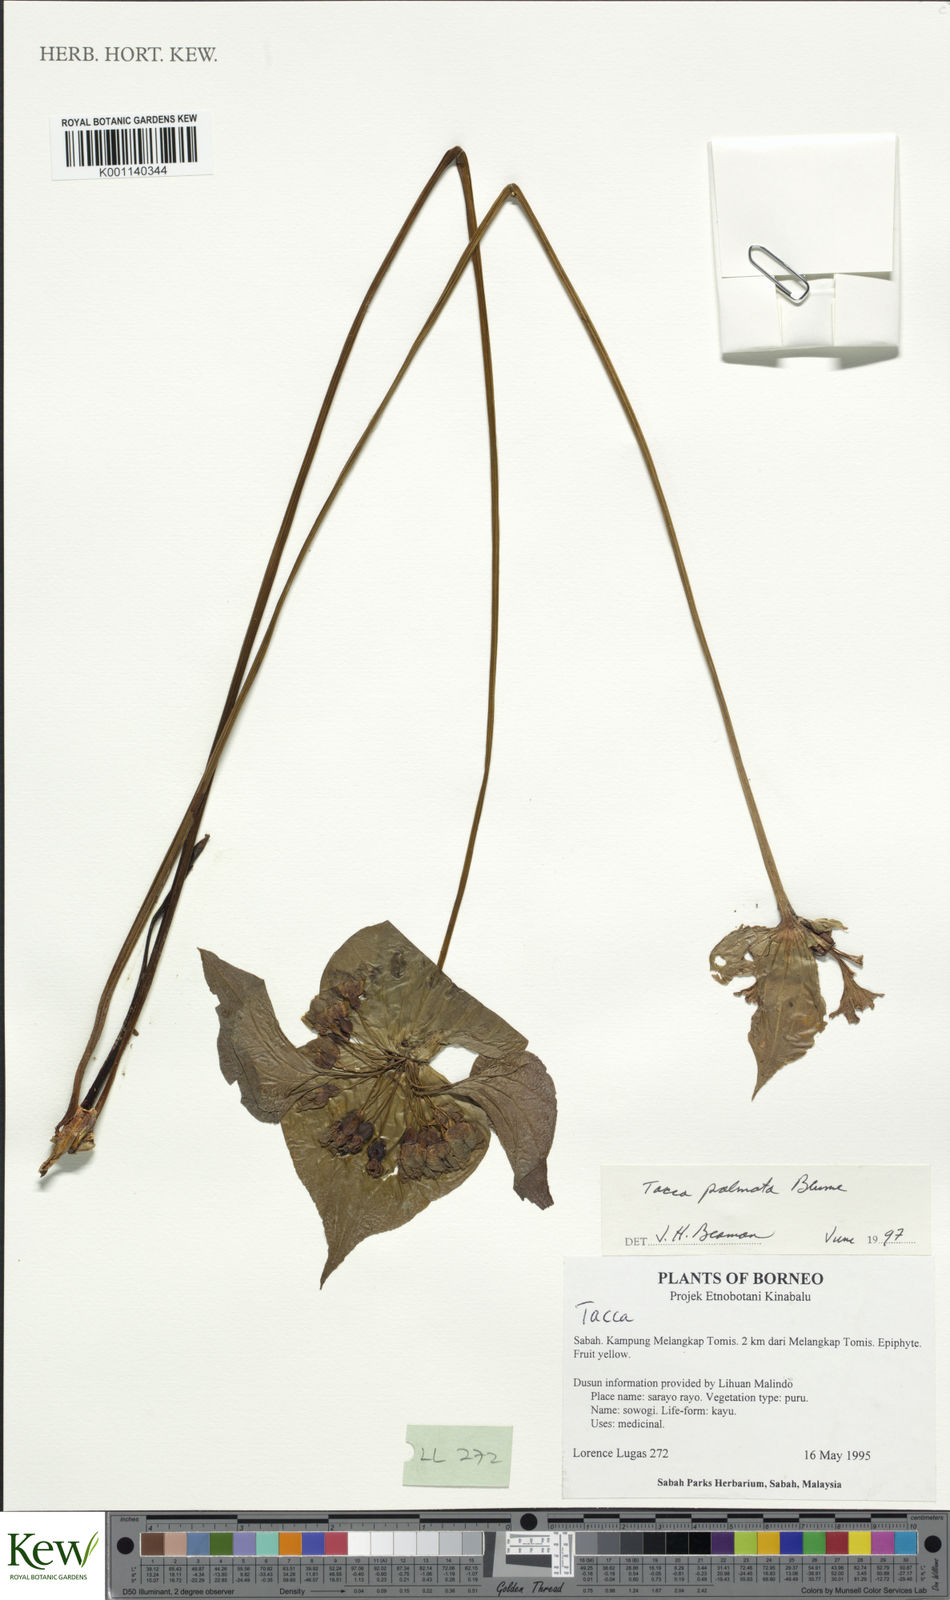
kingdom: Plantae
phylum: Tracheophyta
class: Liliopsida
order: Dioscoreales
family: Dioscoreaceae
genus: Tacca
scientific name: Tacca palmata
